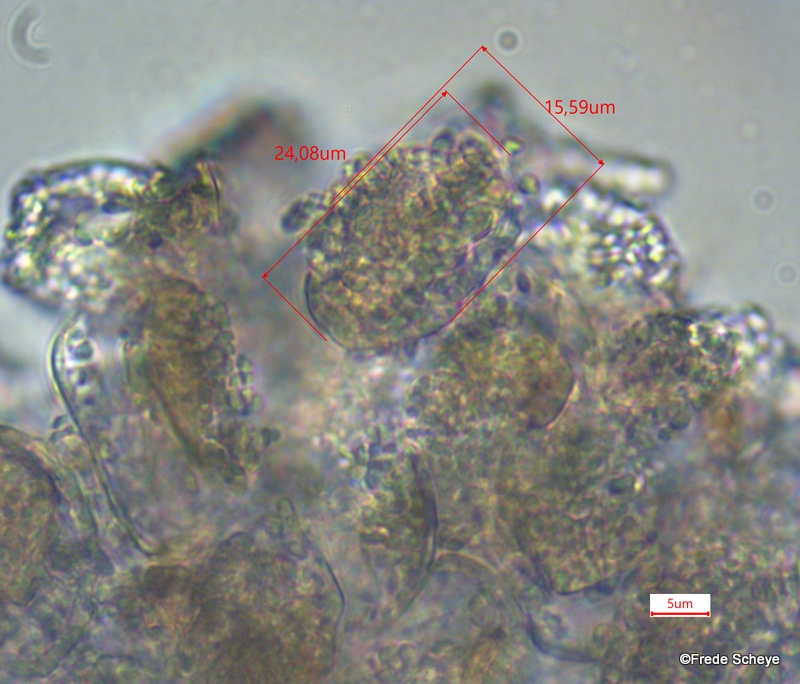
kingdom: Fungi
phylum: Basidiomycota
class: Pucciniomycetes
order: Pucciniales
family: Pucciniastraceae
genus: Thekopsora
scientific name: Thekopsora areolata
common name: grankogle-nålerust
